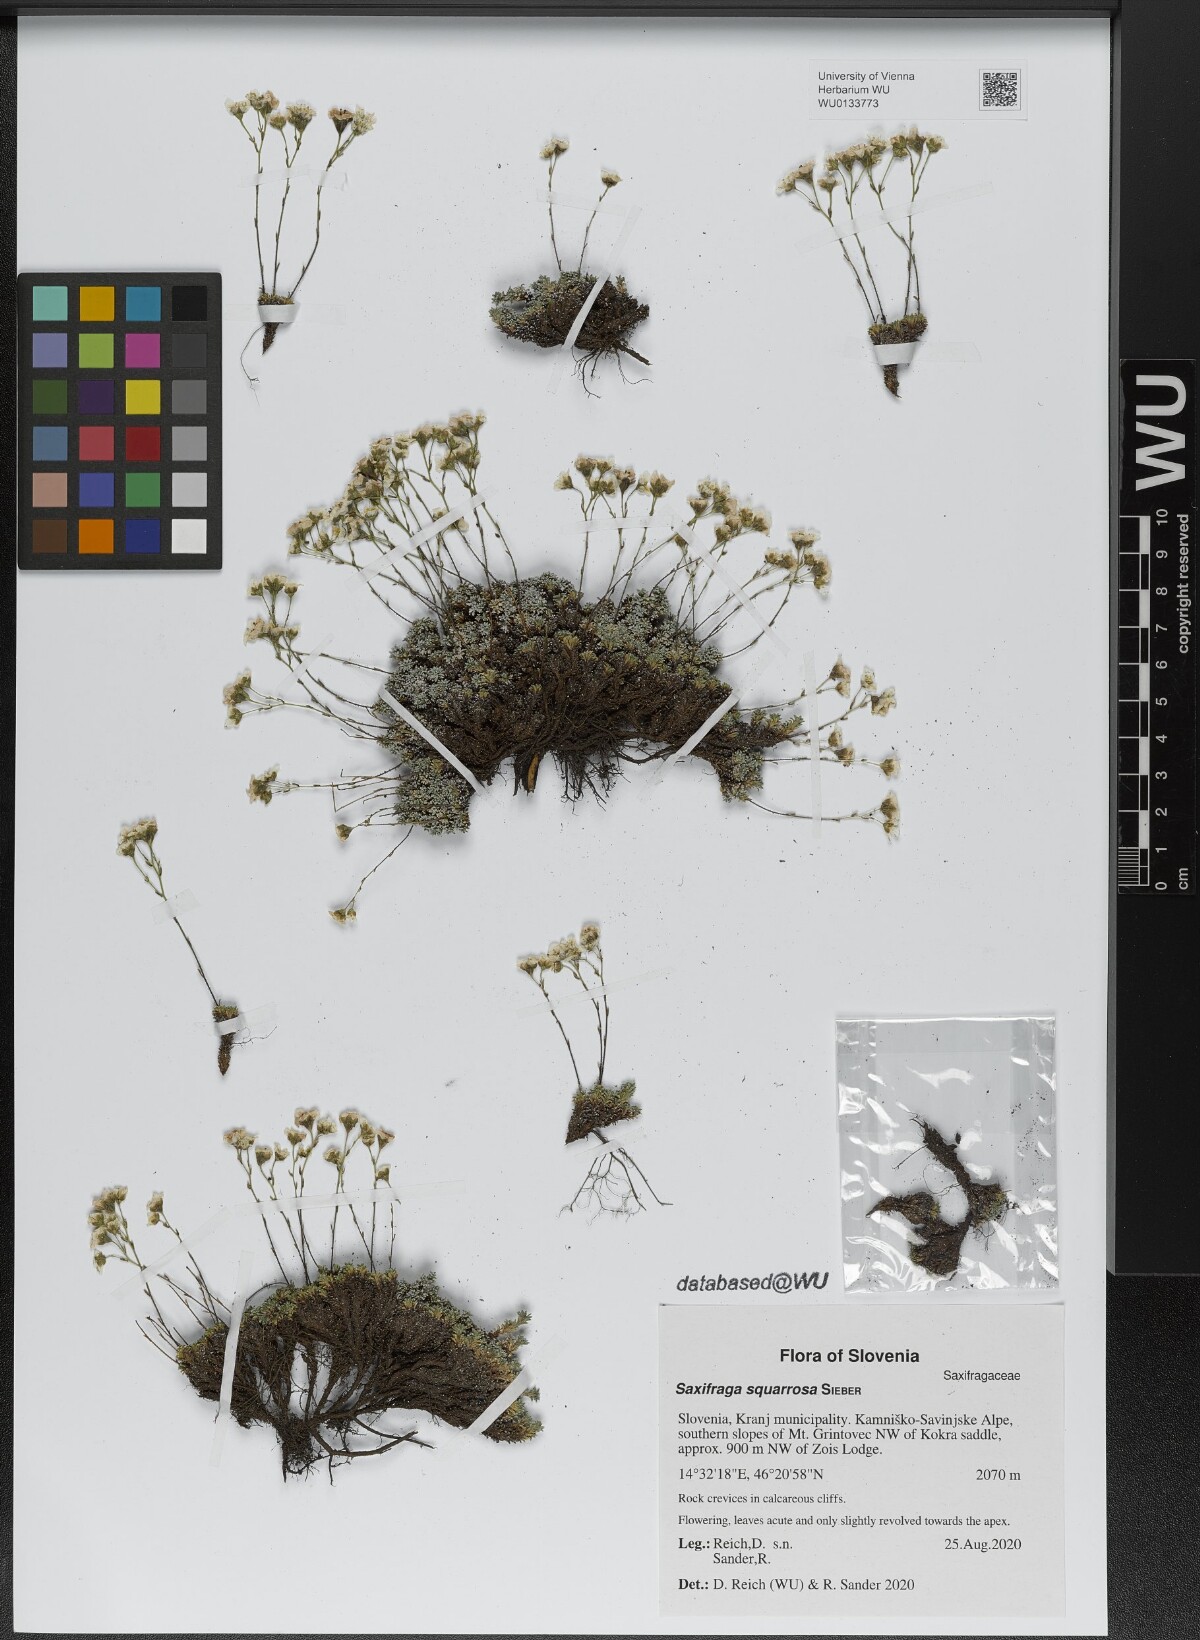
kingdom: Plantae
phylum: Tracheophyta
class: Magnoliopsida
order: Saxifragales
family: Saxifragaceae
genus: Saxifraga
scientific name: Saxifraga squarrosa
